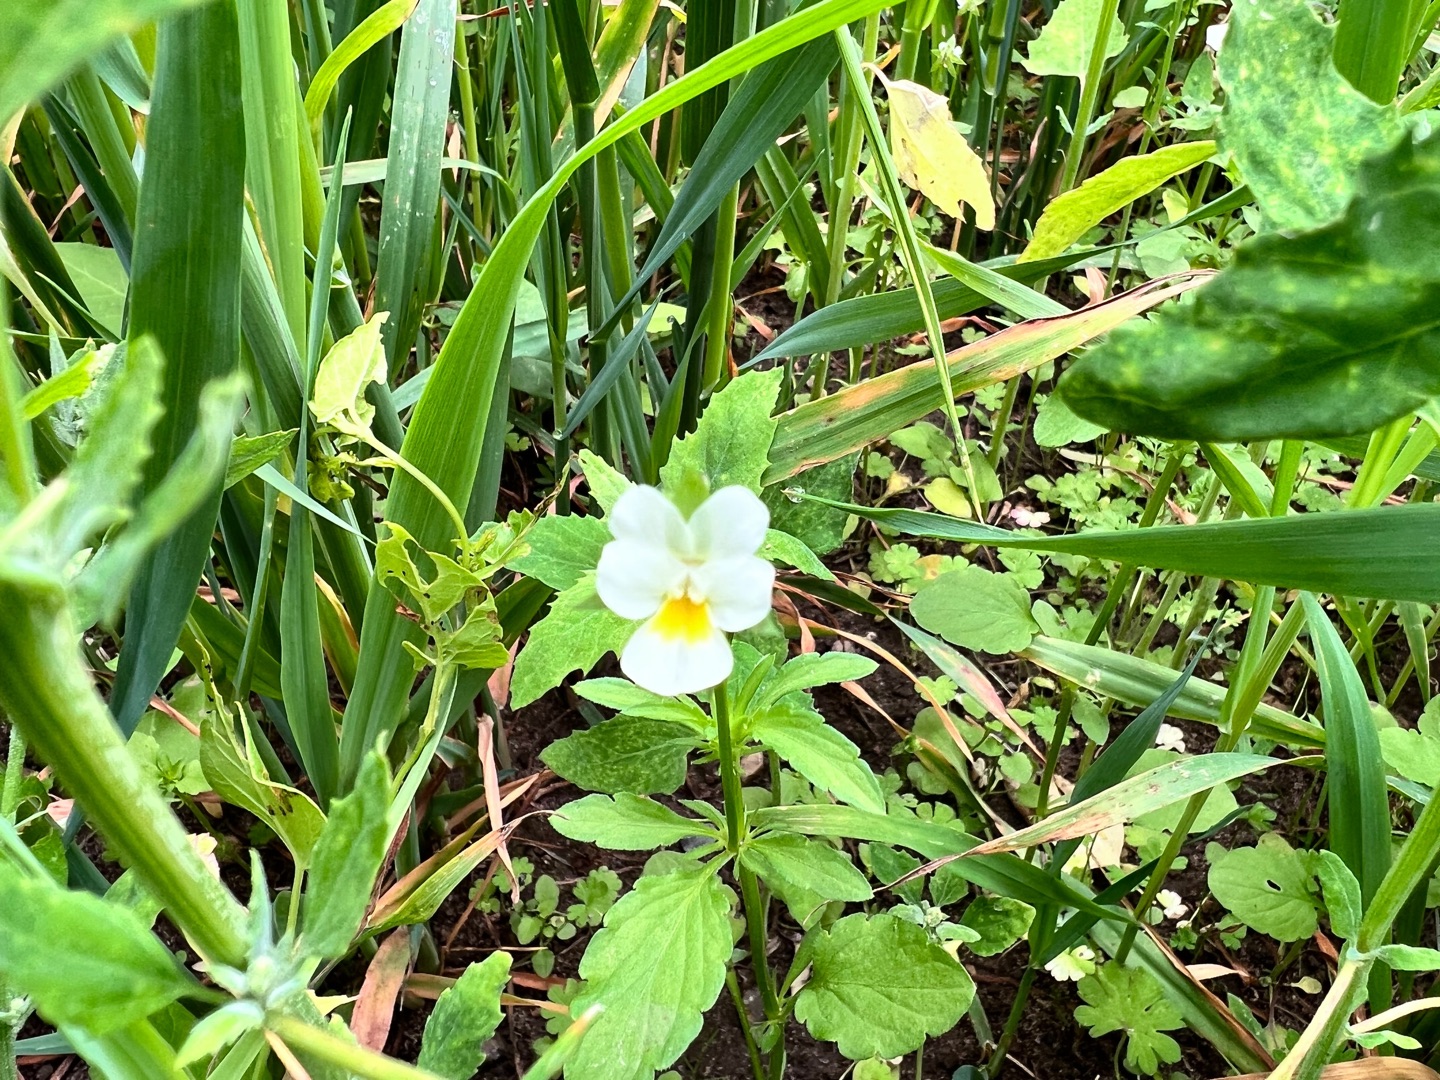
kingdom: Plantae
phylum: Tracheophyta
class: Magnoliopsida
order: Malpighiales
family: Violaceae
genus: Viola
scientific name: Viola arvensis
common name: Ager-stedmoderblomst
